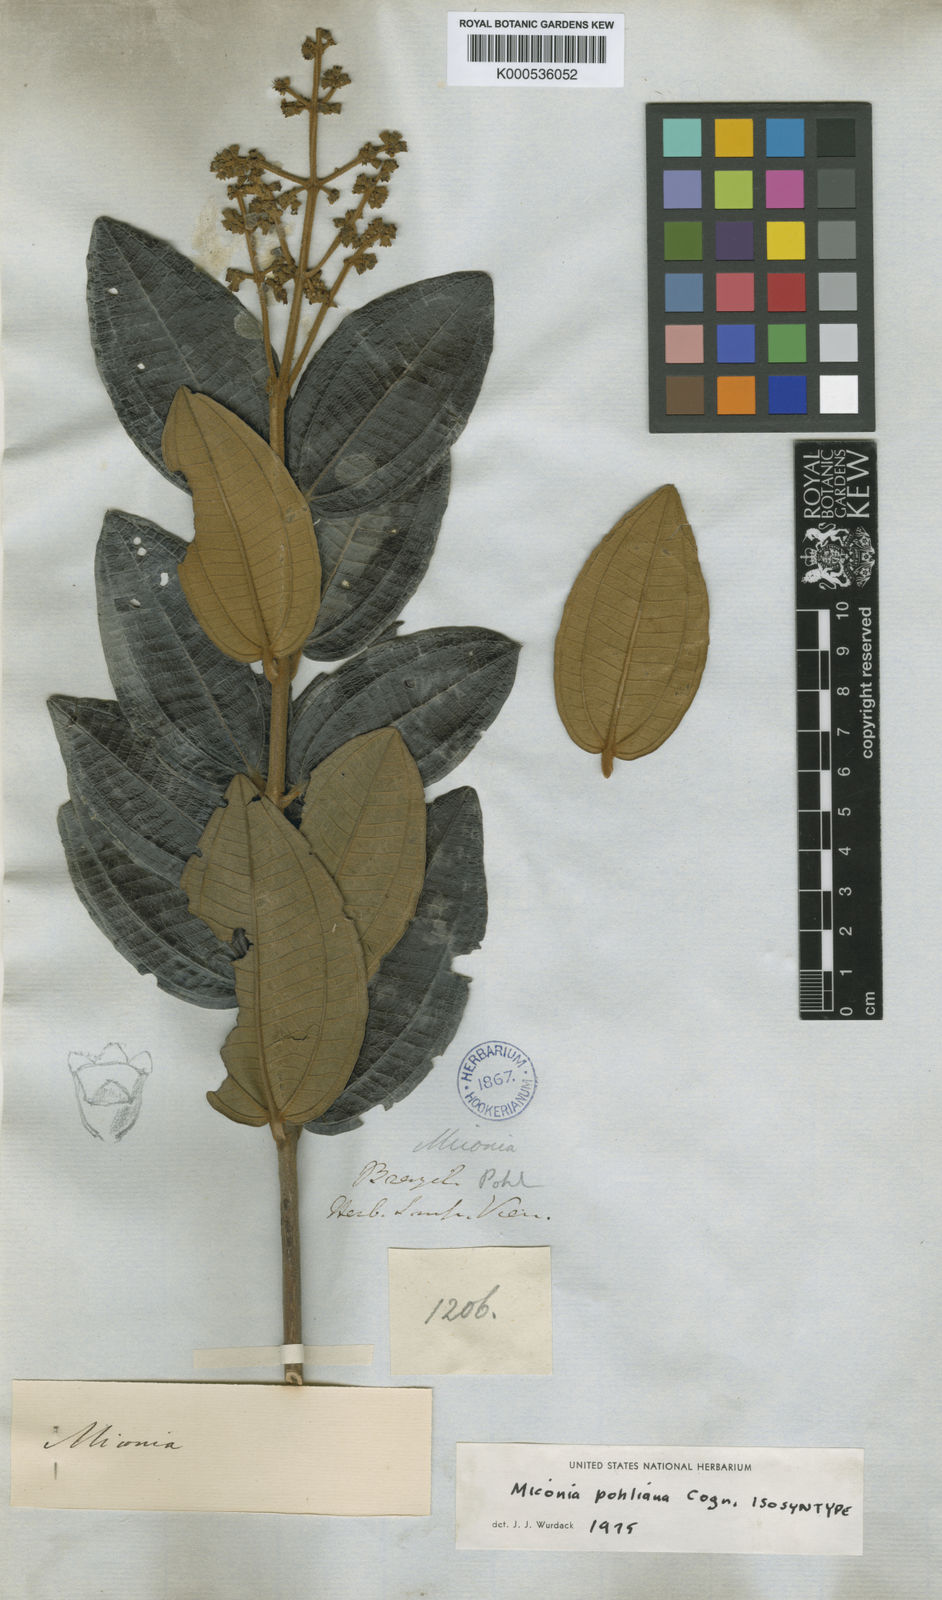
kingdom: Plantae
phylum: Tracheophyta
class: Magnoliopsida
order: Myrtales
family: Melastomataceae
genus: Miconia
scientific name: Miconia leucocarpa
